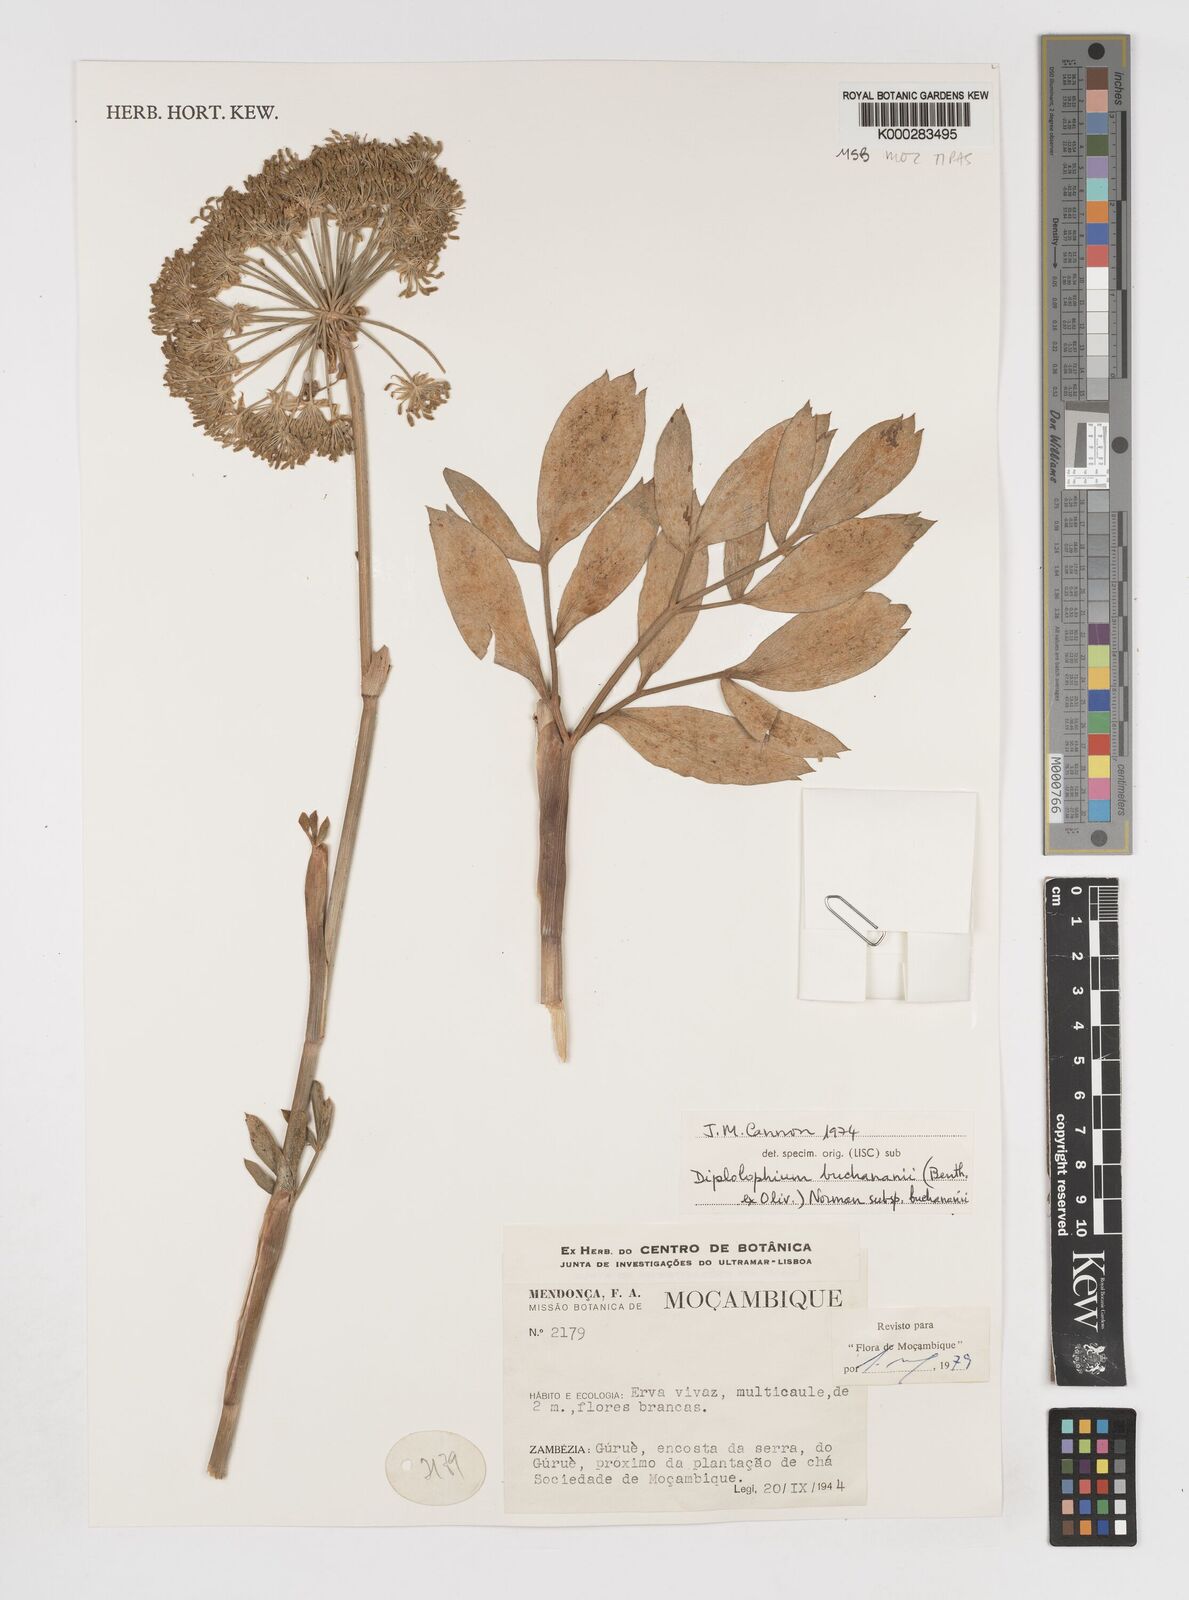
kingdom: Plantae
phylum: Tracheophyta
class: Magnoliopsida
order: Apiales
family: Apiaceae
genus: Diplolophium
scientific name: Diplolophium buchananii
